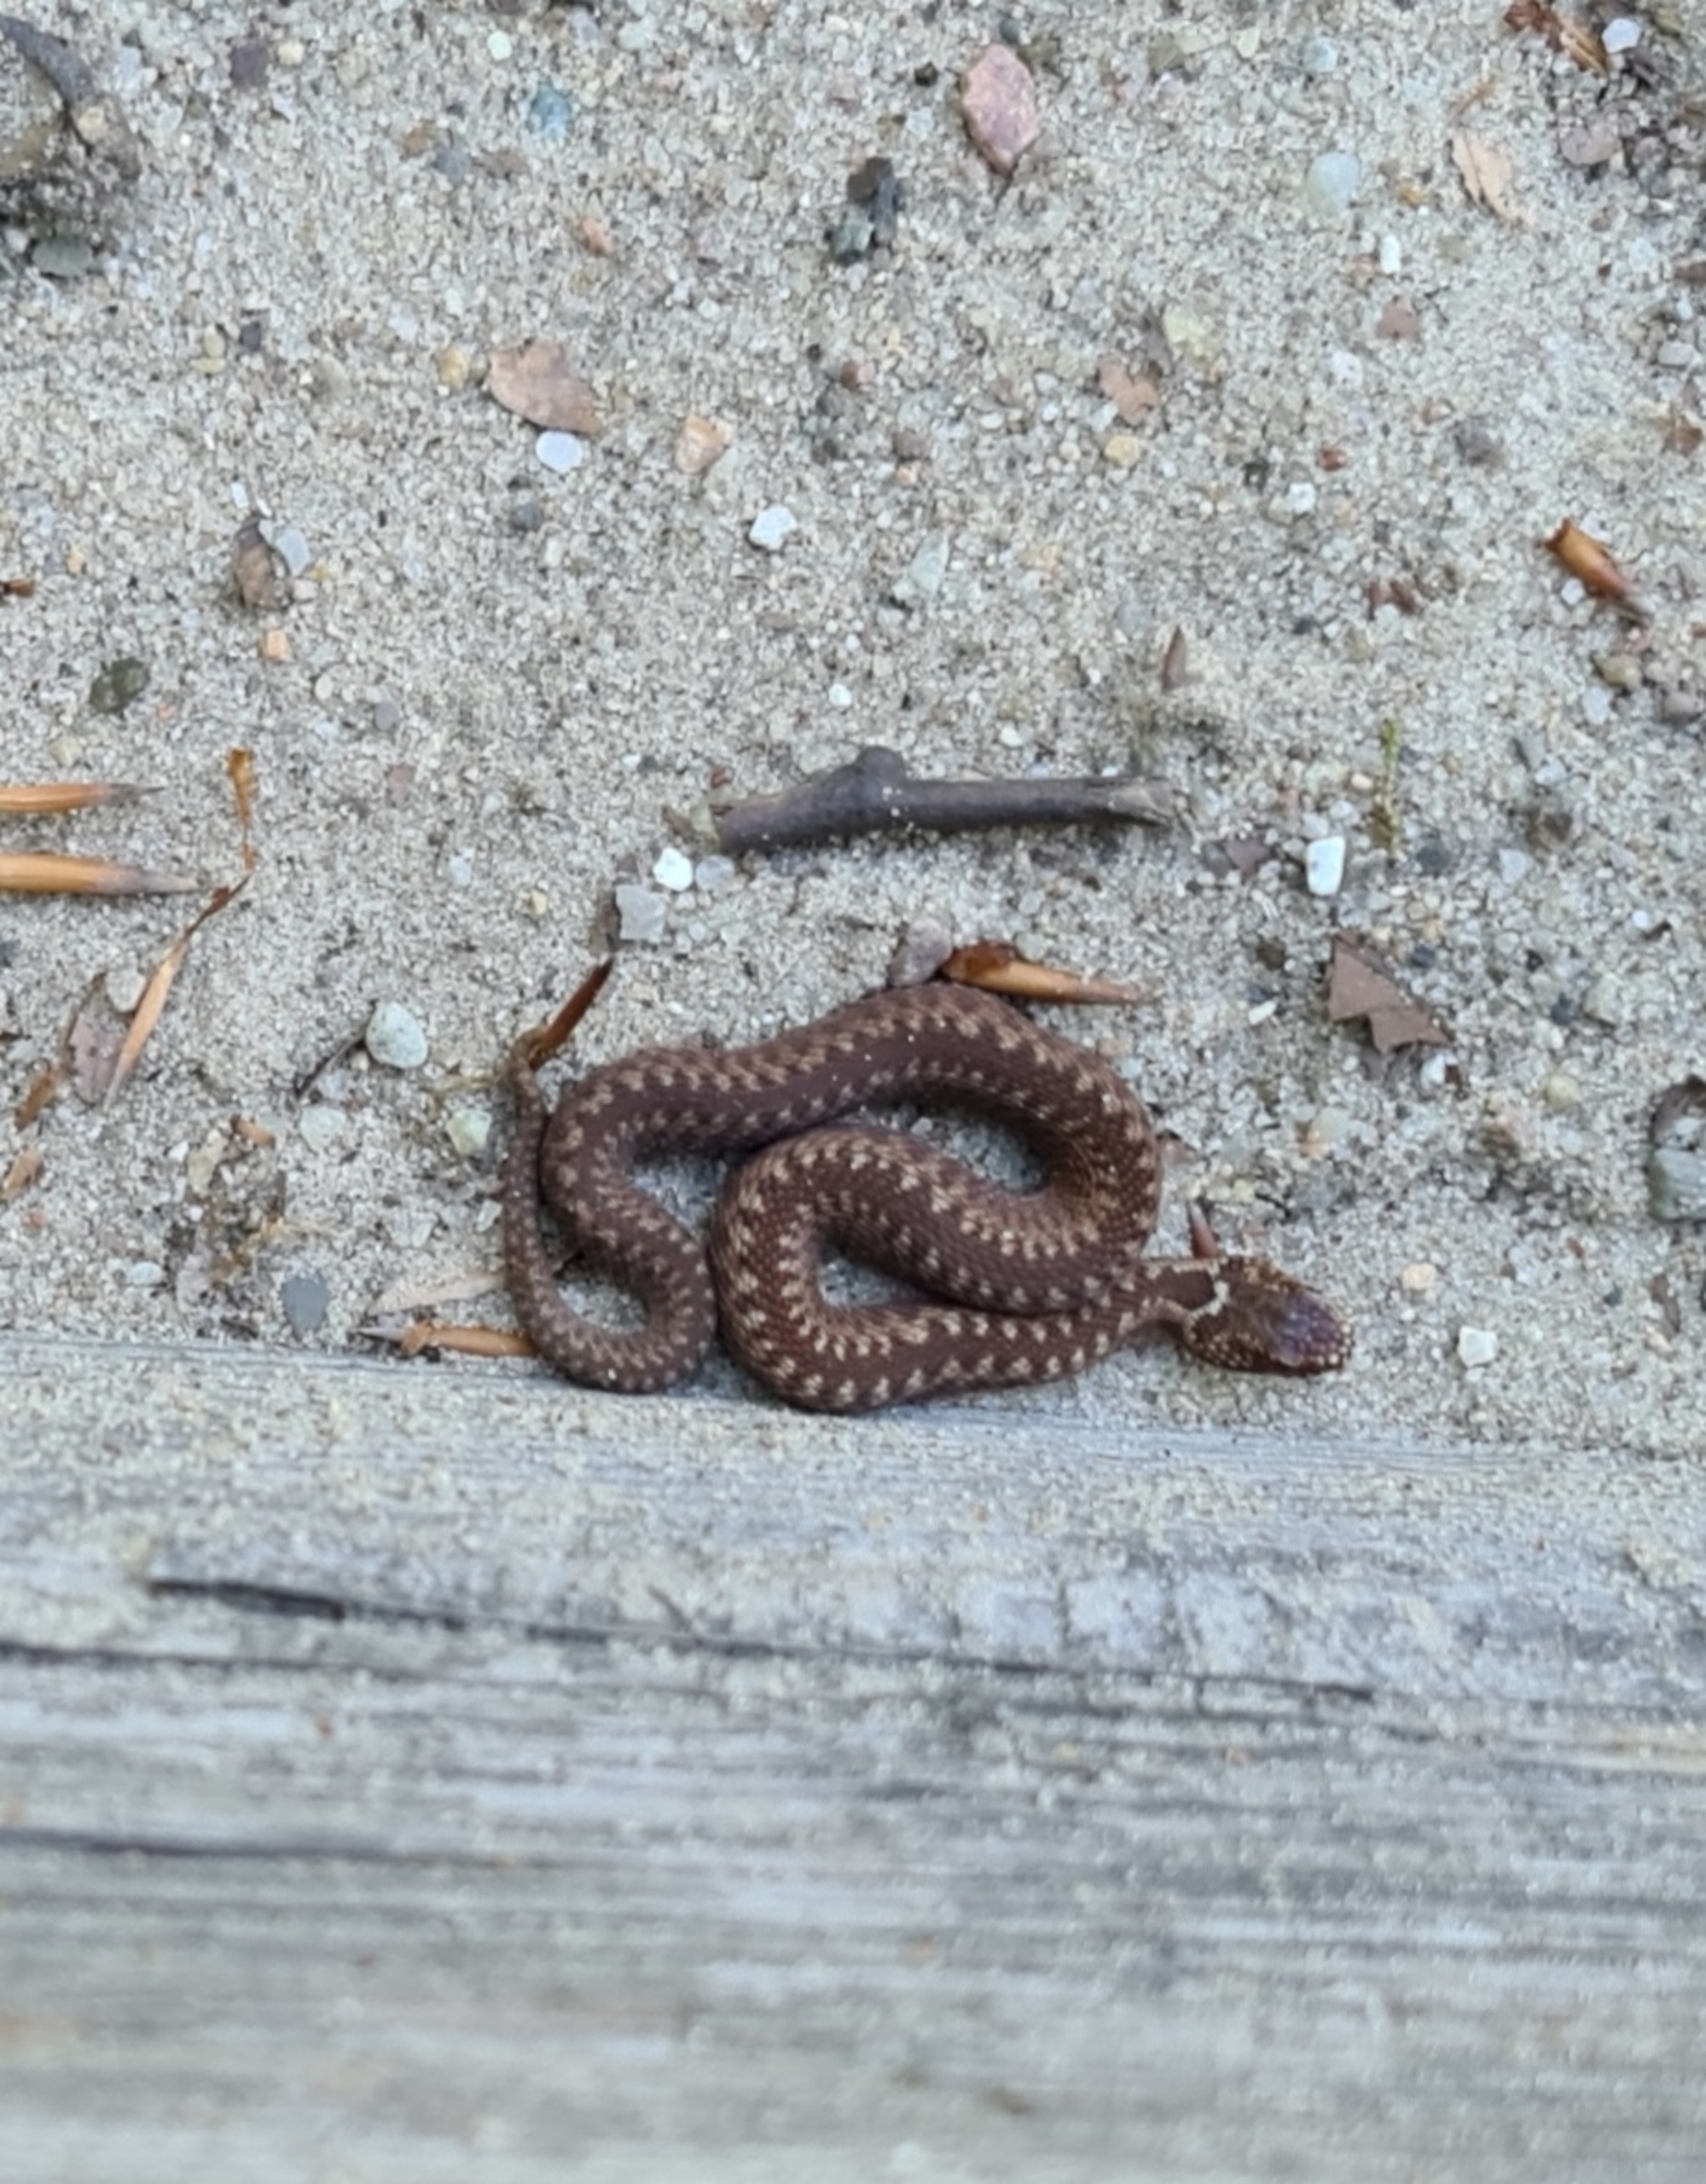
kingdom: Animalia
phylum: Chordata
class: Squamata
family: Viperidae
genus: Vipera
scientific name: Vipera berus
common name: Hugorm
